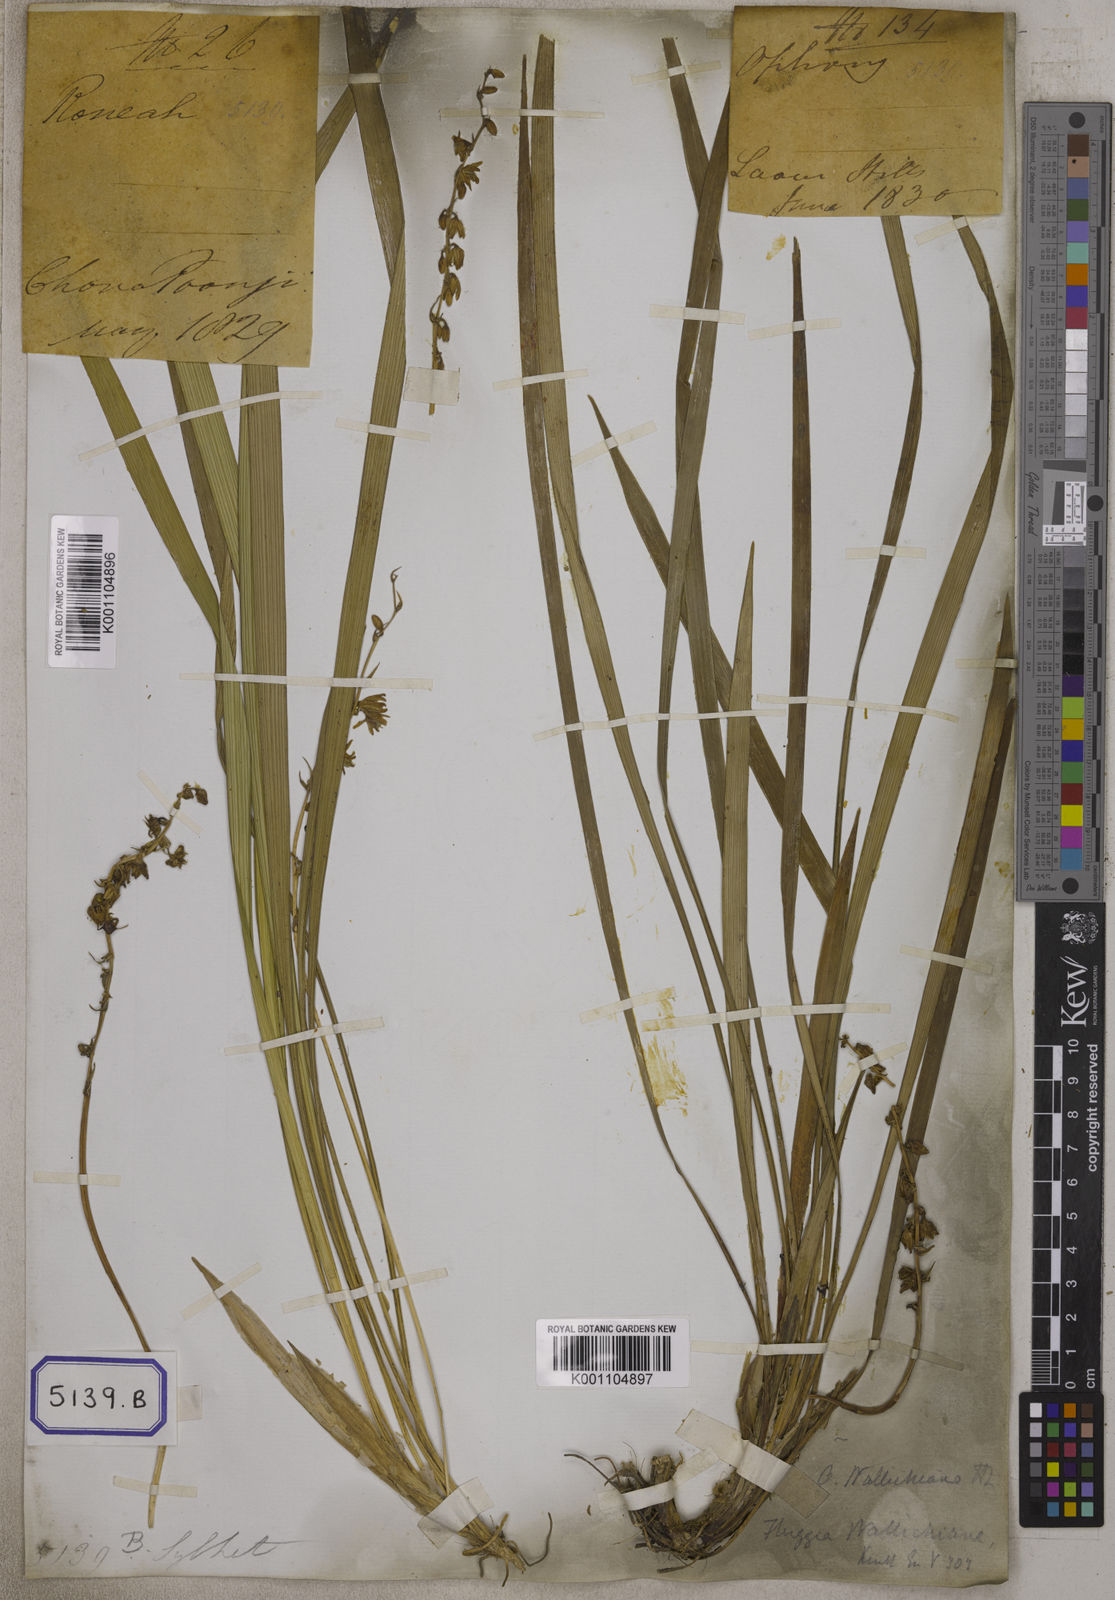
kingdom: Plantae
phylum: Tracheophyta
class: Liliopsida
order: Asparagales
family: Asparagaceae
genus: Ophiopogon
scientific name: Ophiopogon
